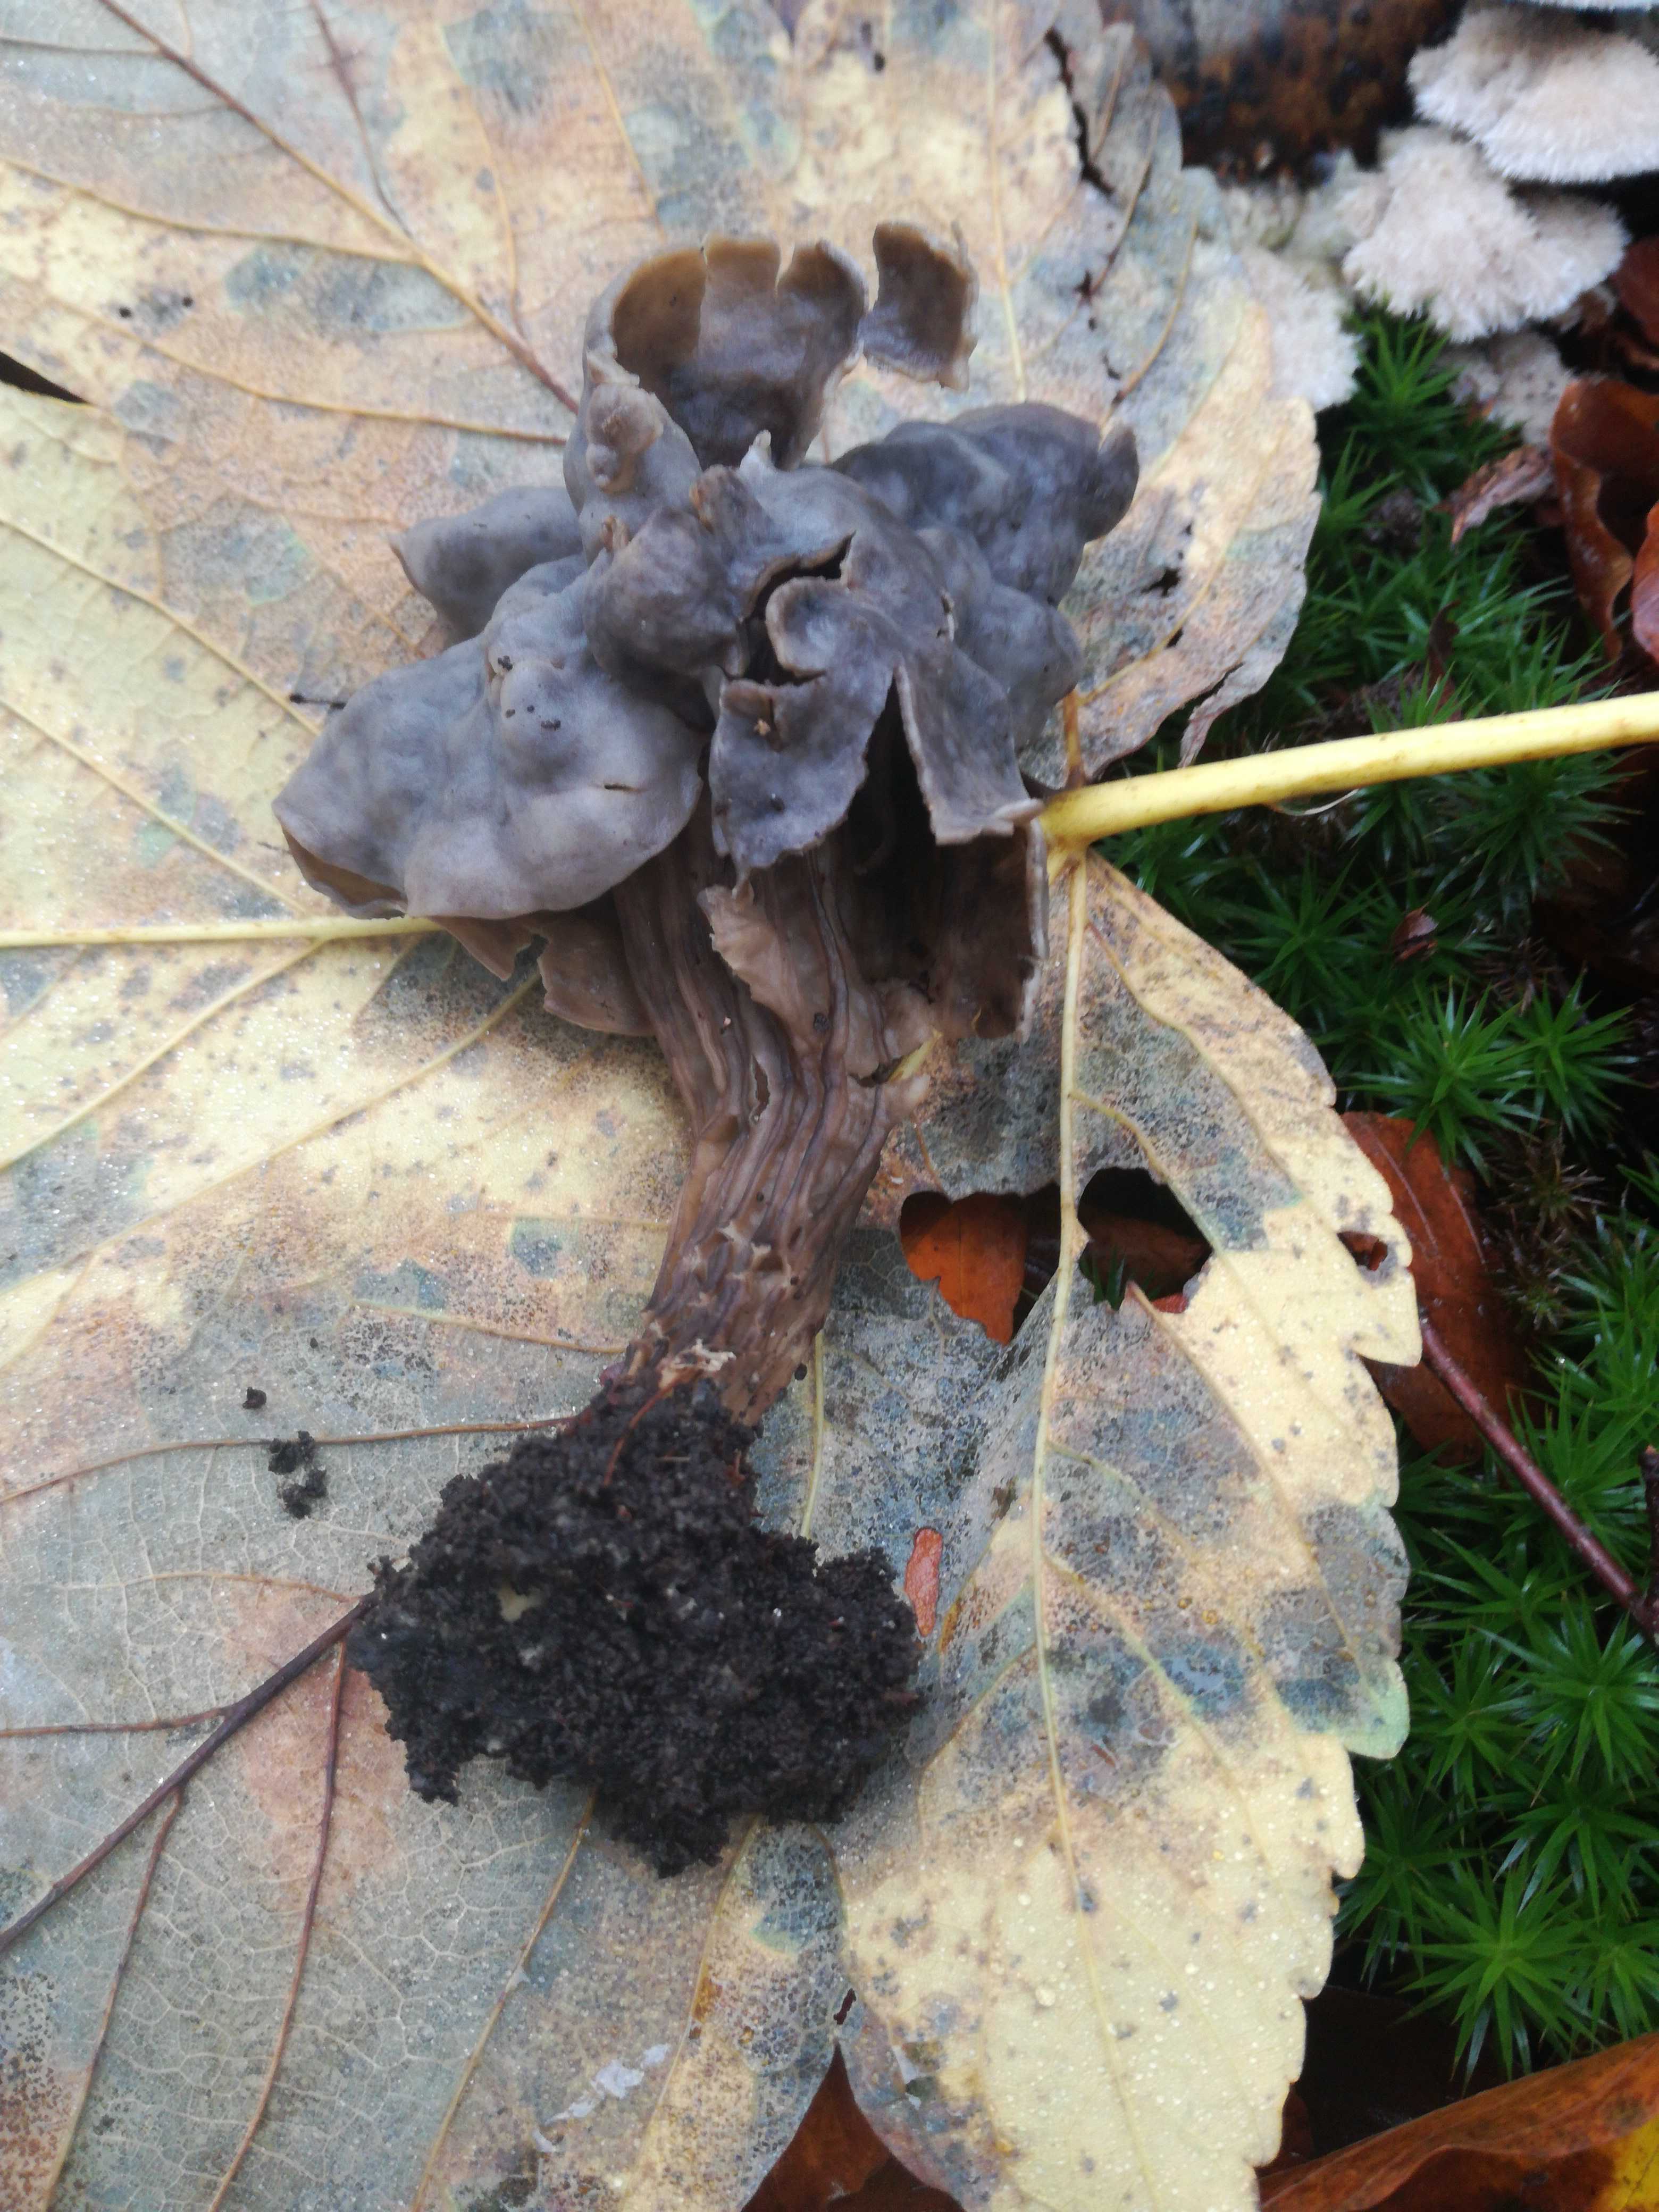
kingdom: Fungi
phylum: Ascomycota
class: Pezizomycetes
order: Pezizales
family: Helvellaceae
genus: Helvella
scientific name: Helvella lacunosa
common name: grubet foldhat
